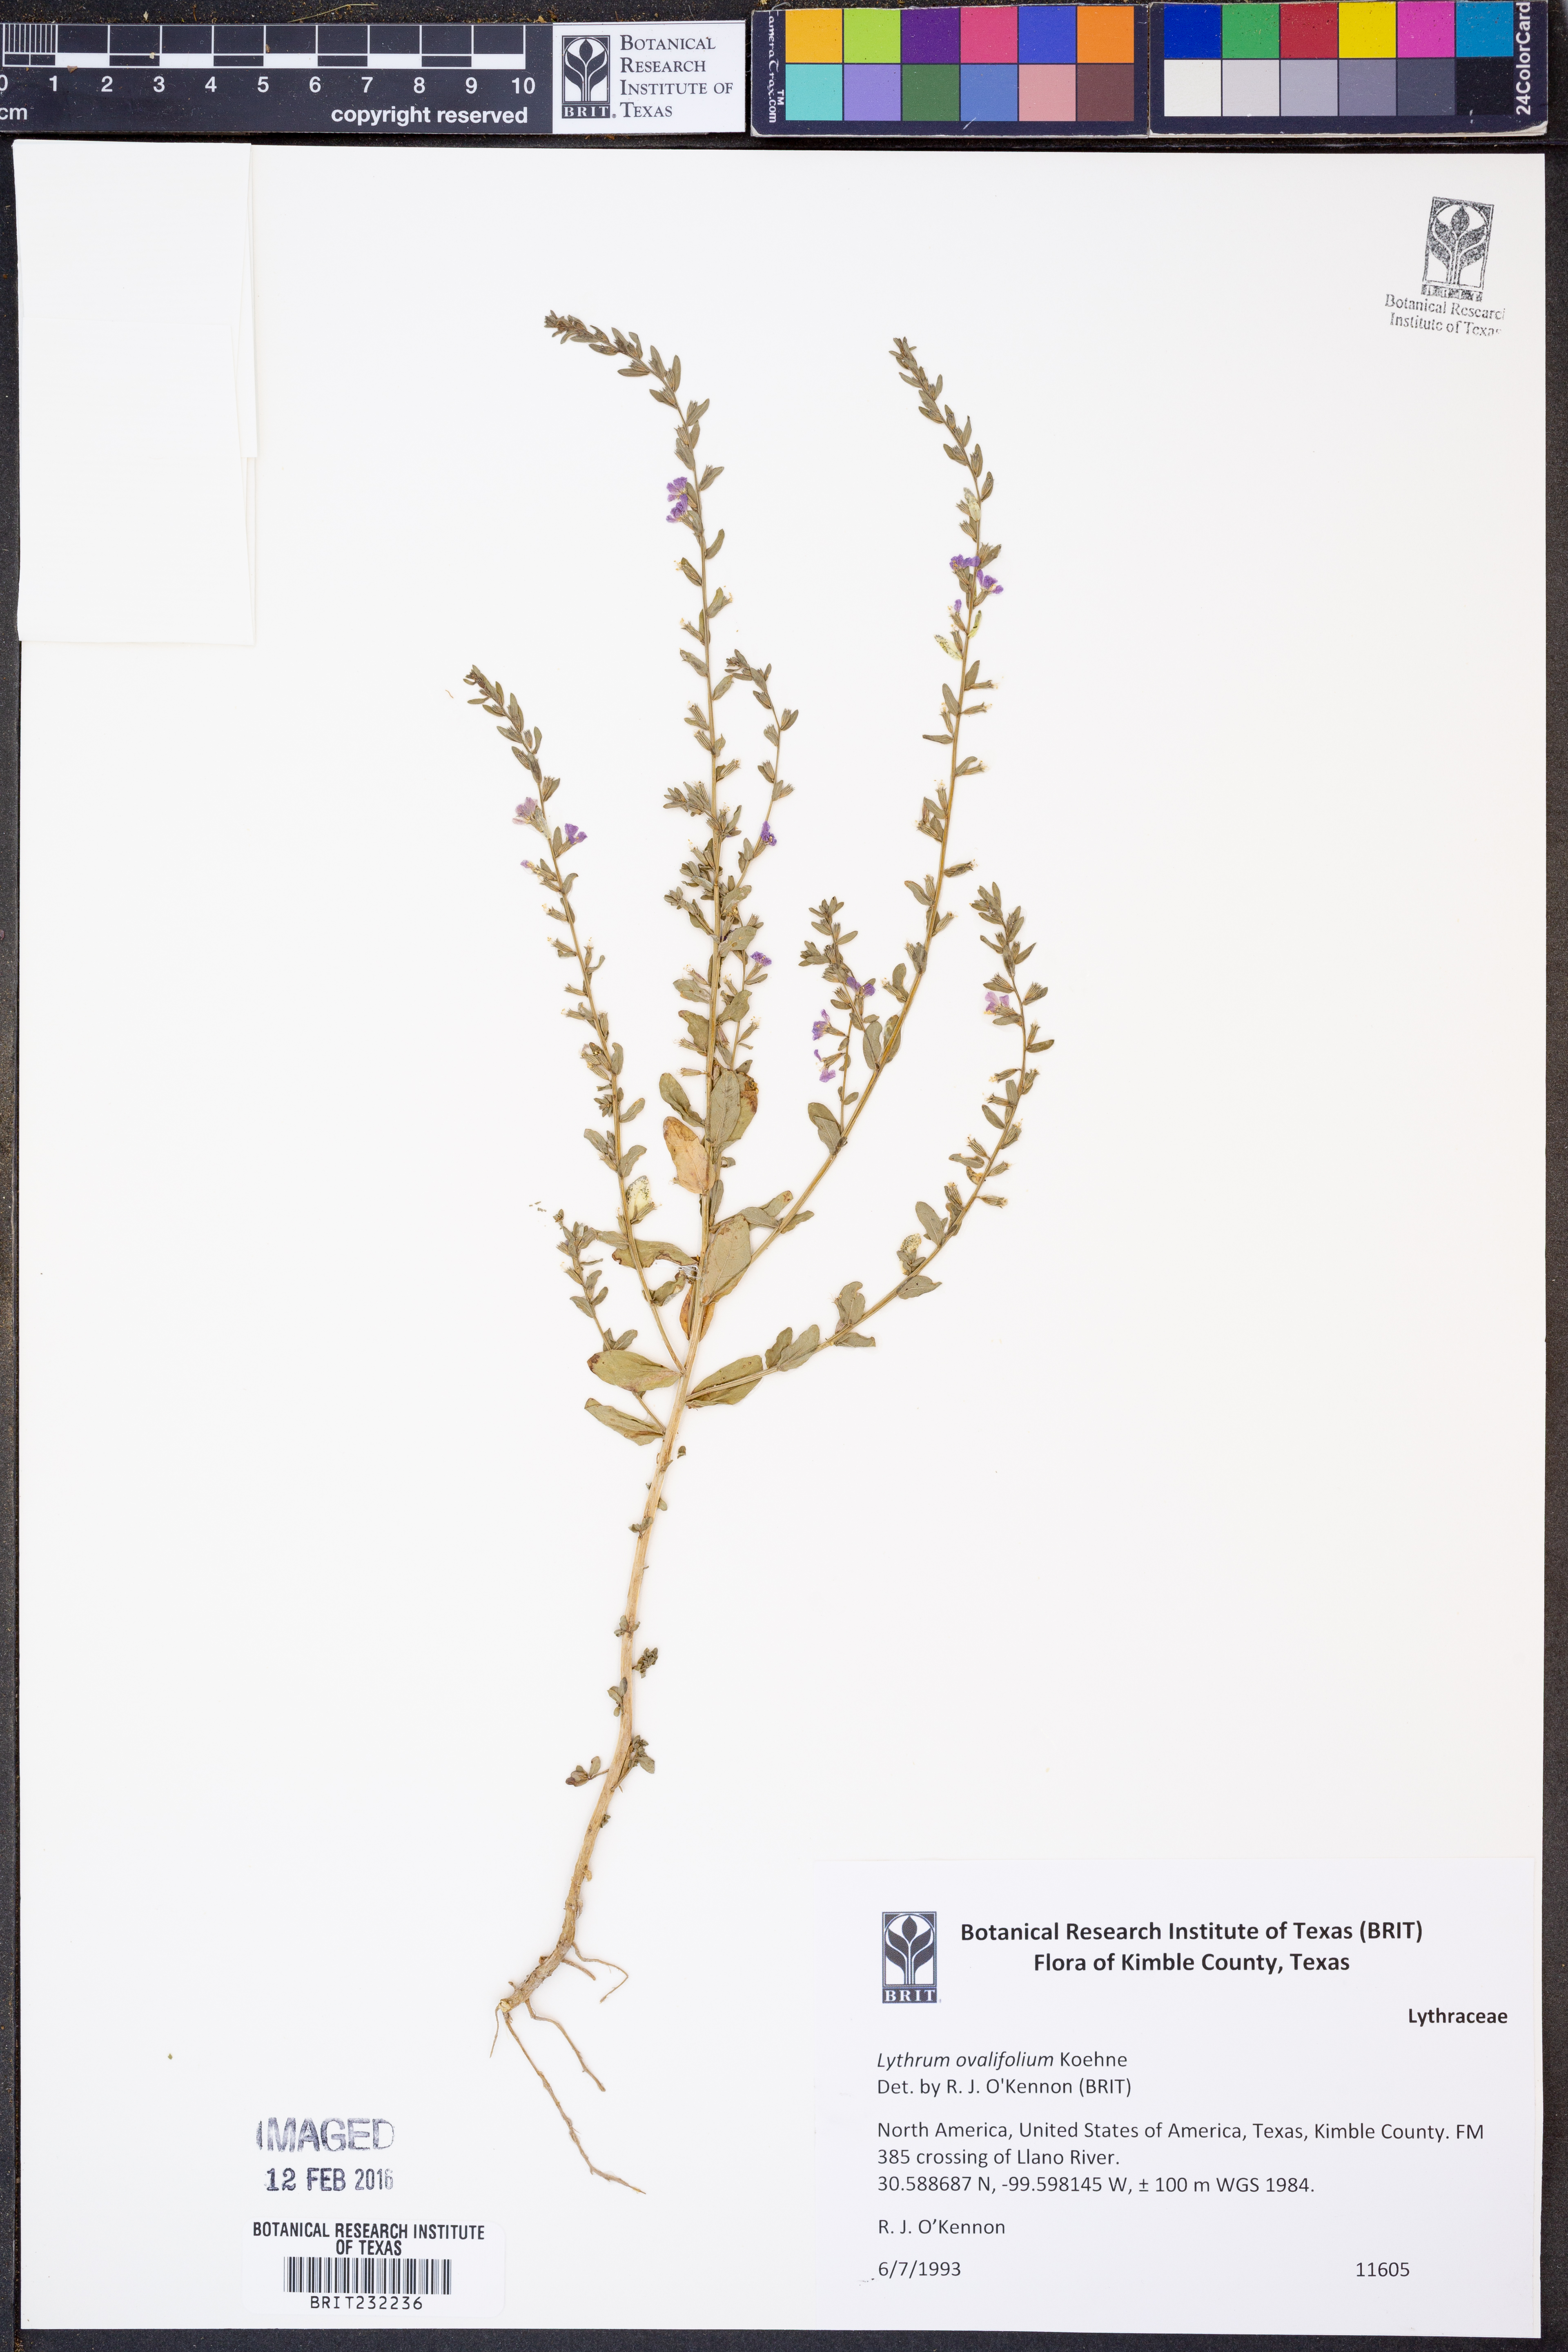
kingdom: Plantae
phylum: Tracheophyta
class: Magnoliopsida
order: Myrtales
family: Lythraceae
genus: Lythrum
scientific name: Lythrum ovalifolium
